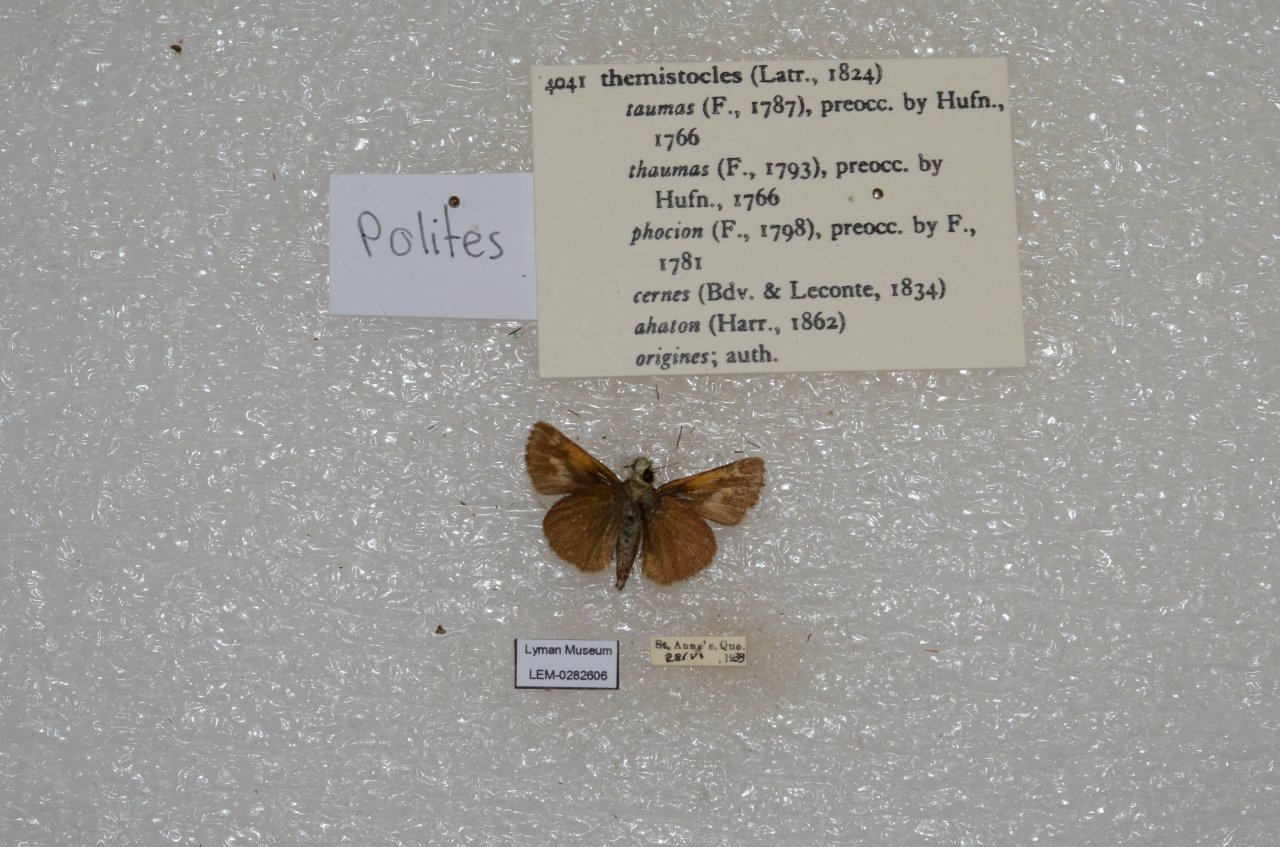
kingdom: Animalia
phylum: Arthropoda
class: Insecta
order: Lepidoptera
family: Hesperiidae
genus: Polites
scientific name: Polites themistocles
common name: Tawny-edged Skipper
